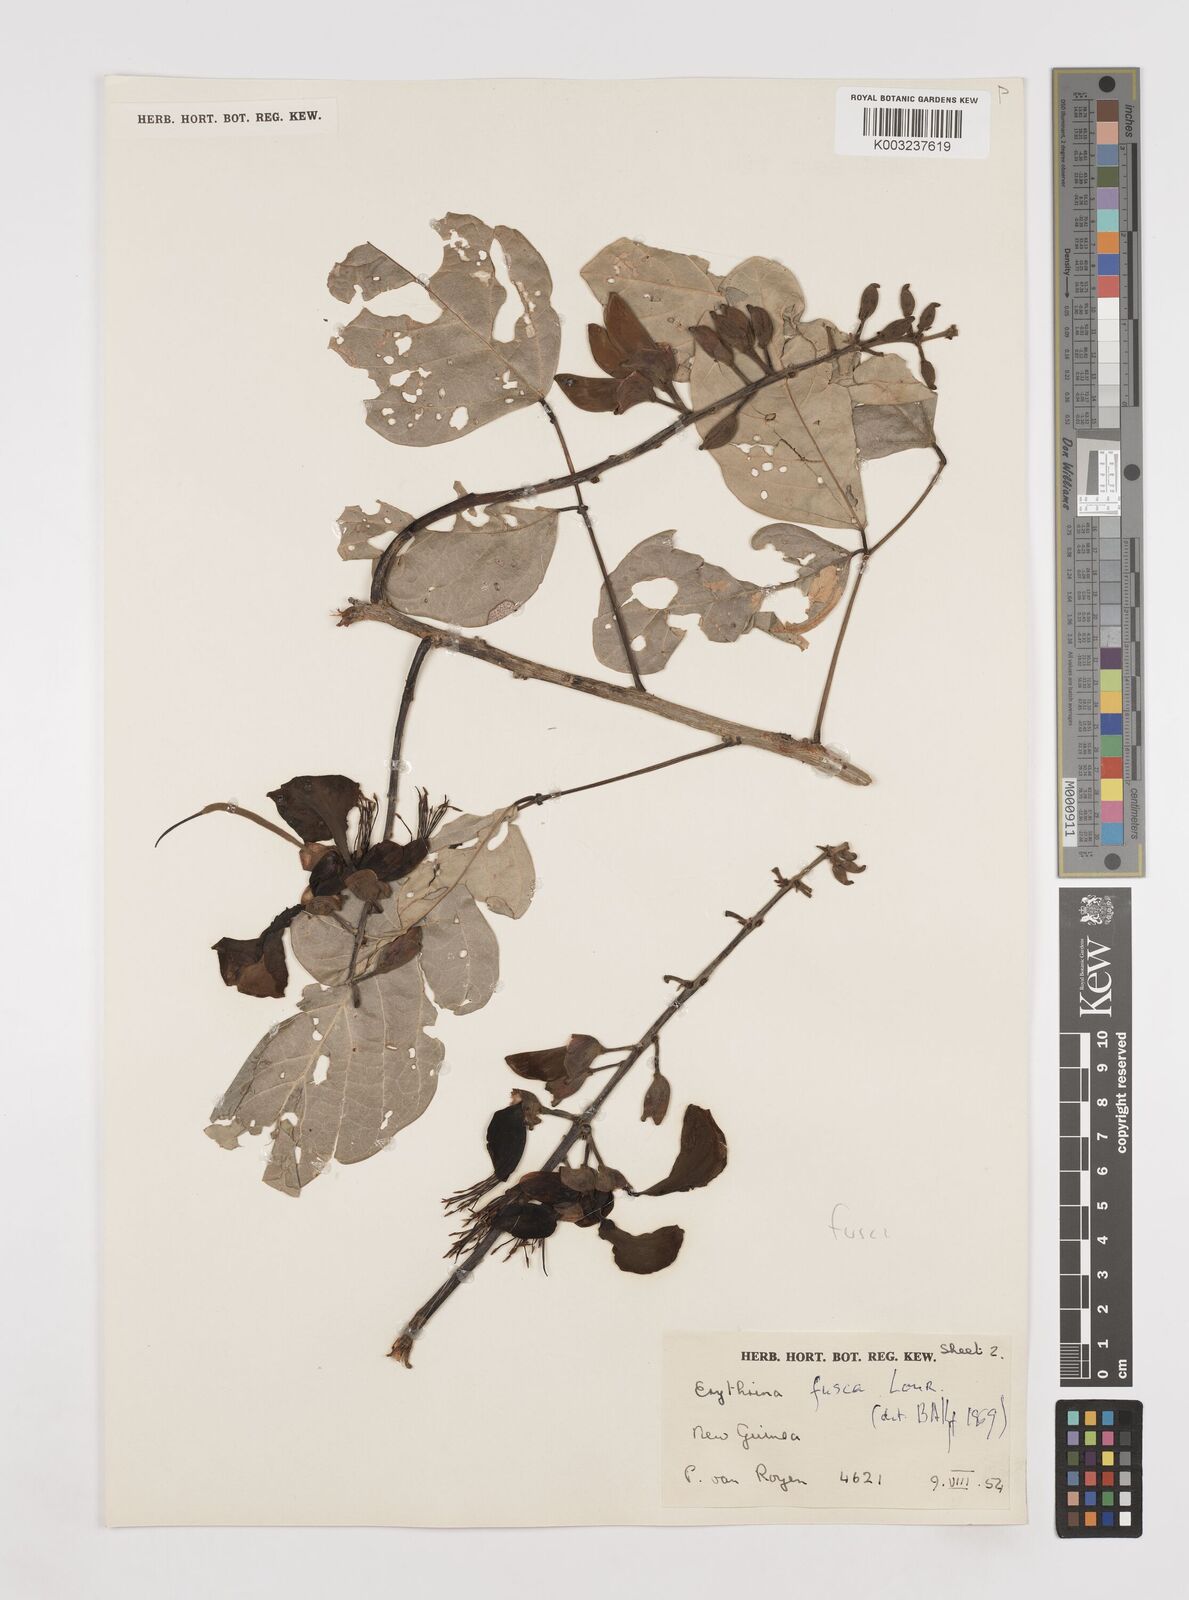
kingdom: Plantae
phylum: Tracheophyta
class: Magnoliopsida
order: Fabales
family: Fabaceae
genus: Erythrina
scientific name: Erythrina fusca
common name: Coral-bean
